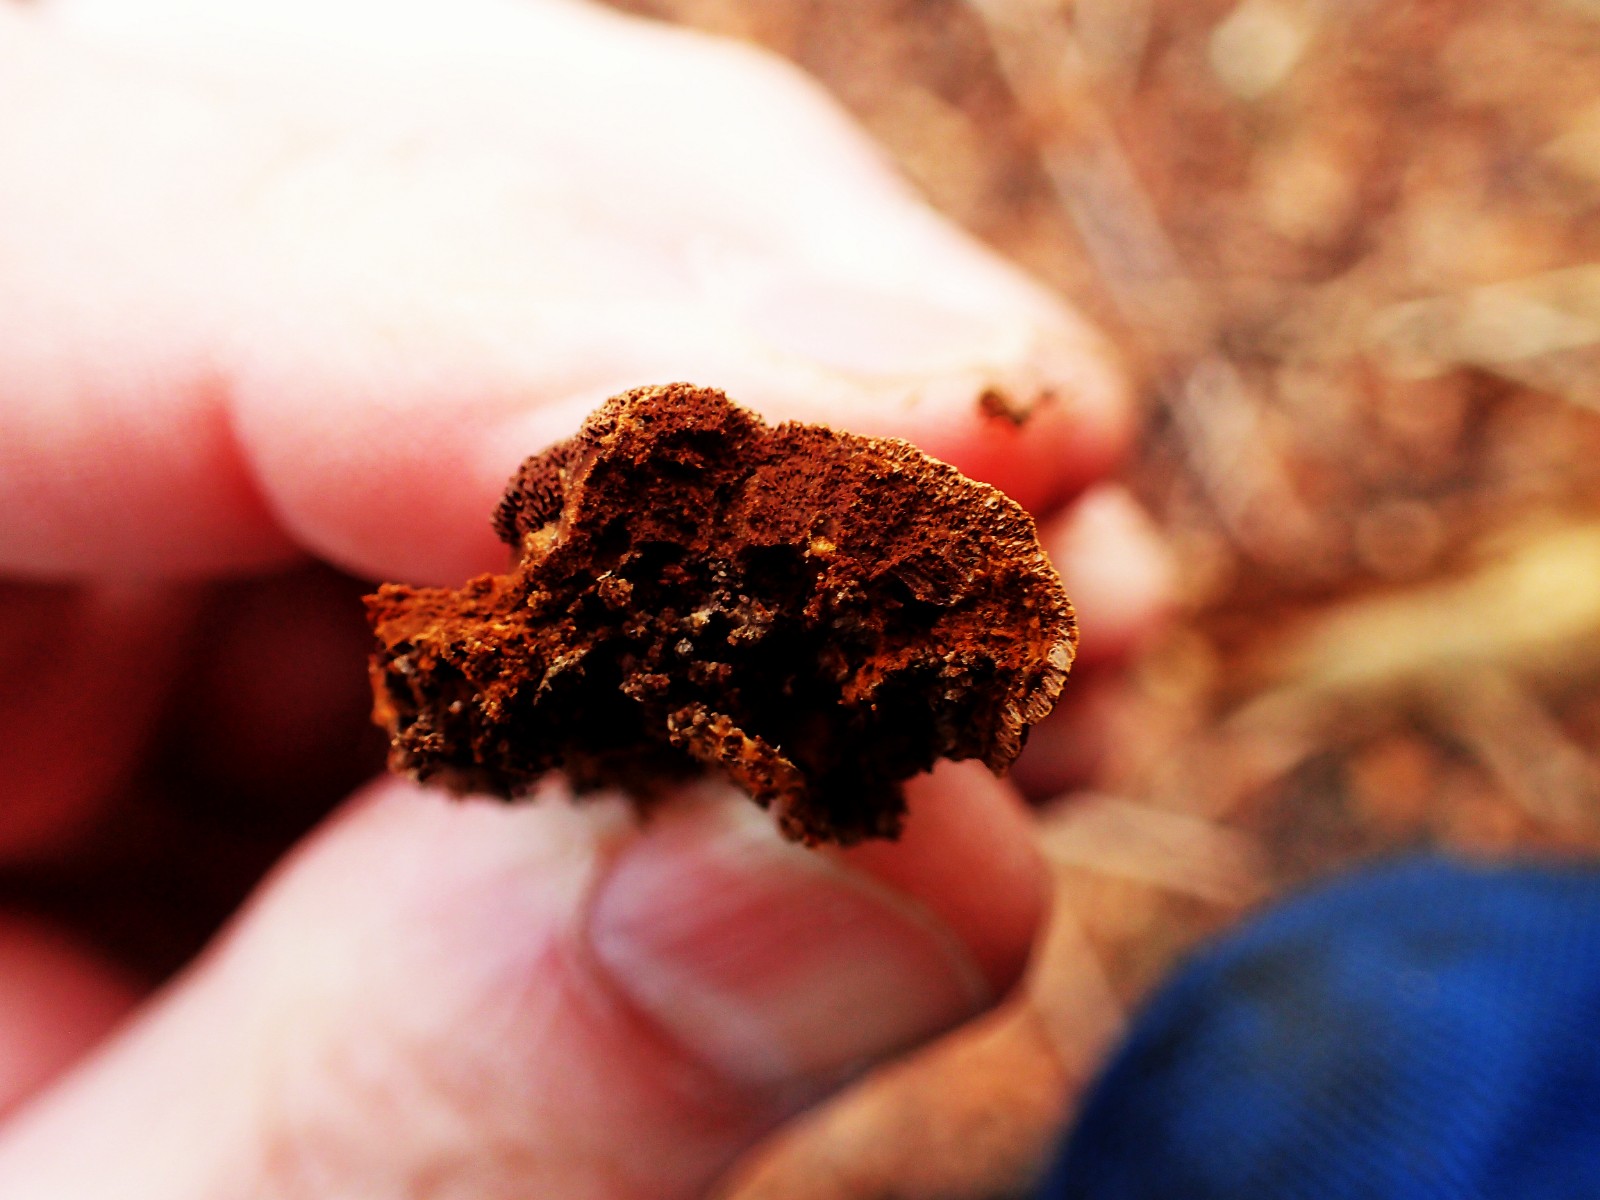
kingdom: Fungi
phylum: Basidiomycota
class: Agaricomycetes
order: Hymenochaetales
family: Hymenochaetaceae
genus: Fuscoporia
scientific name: Fuscoporia
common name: Ildporesvamp
